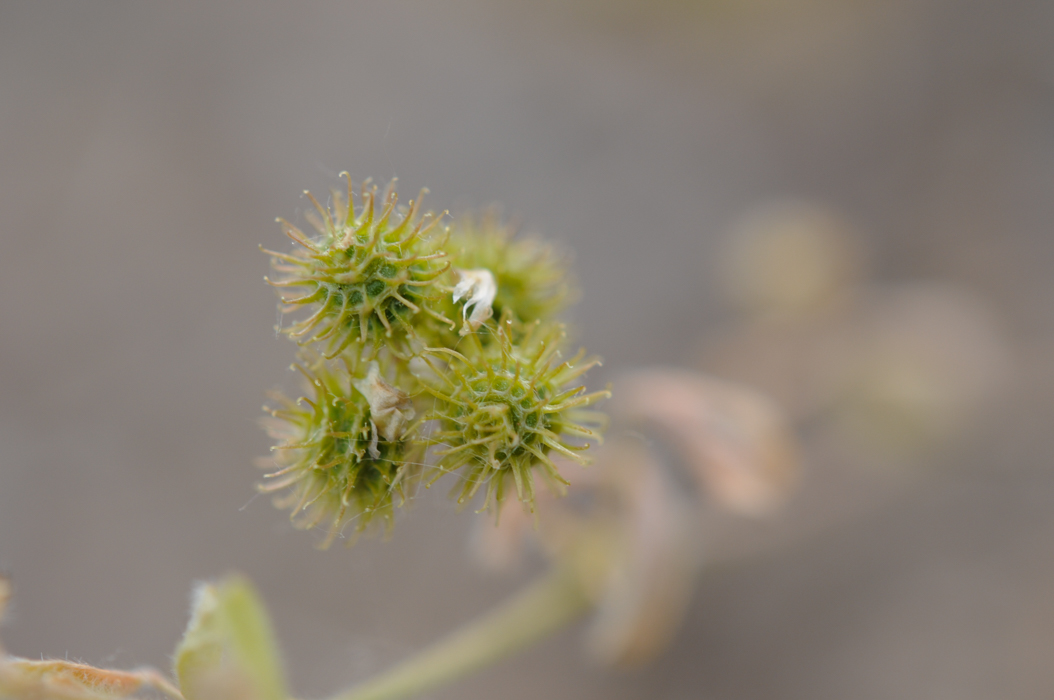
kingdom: Plantae
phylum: Tracheophyta
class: Magnoliopsida
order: Fabales
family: Fabaceae
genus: Medicago
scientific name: Medicago minima
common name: Little bur-clover
